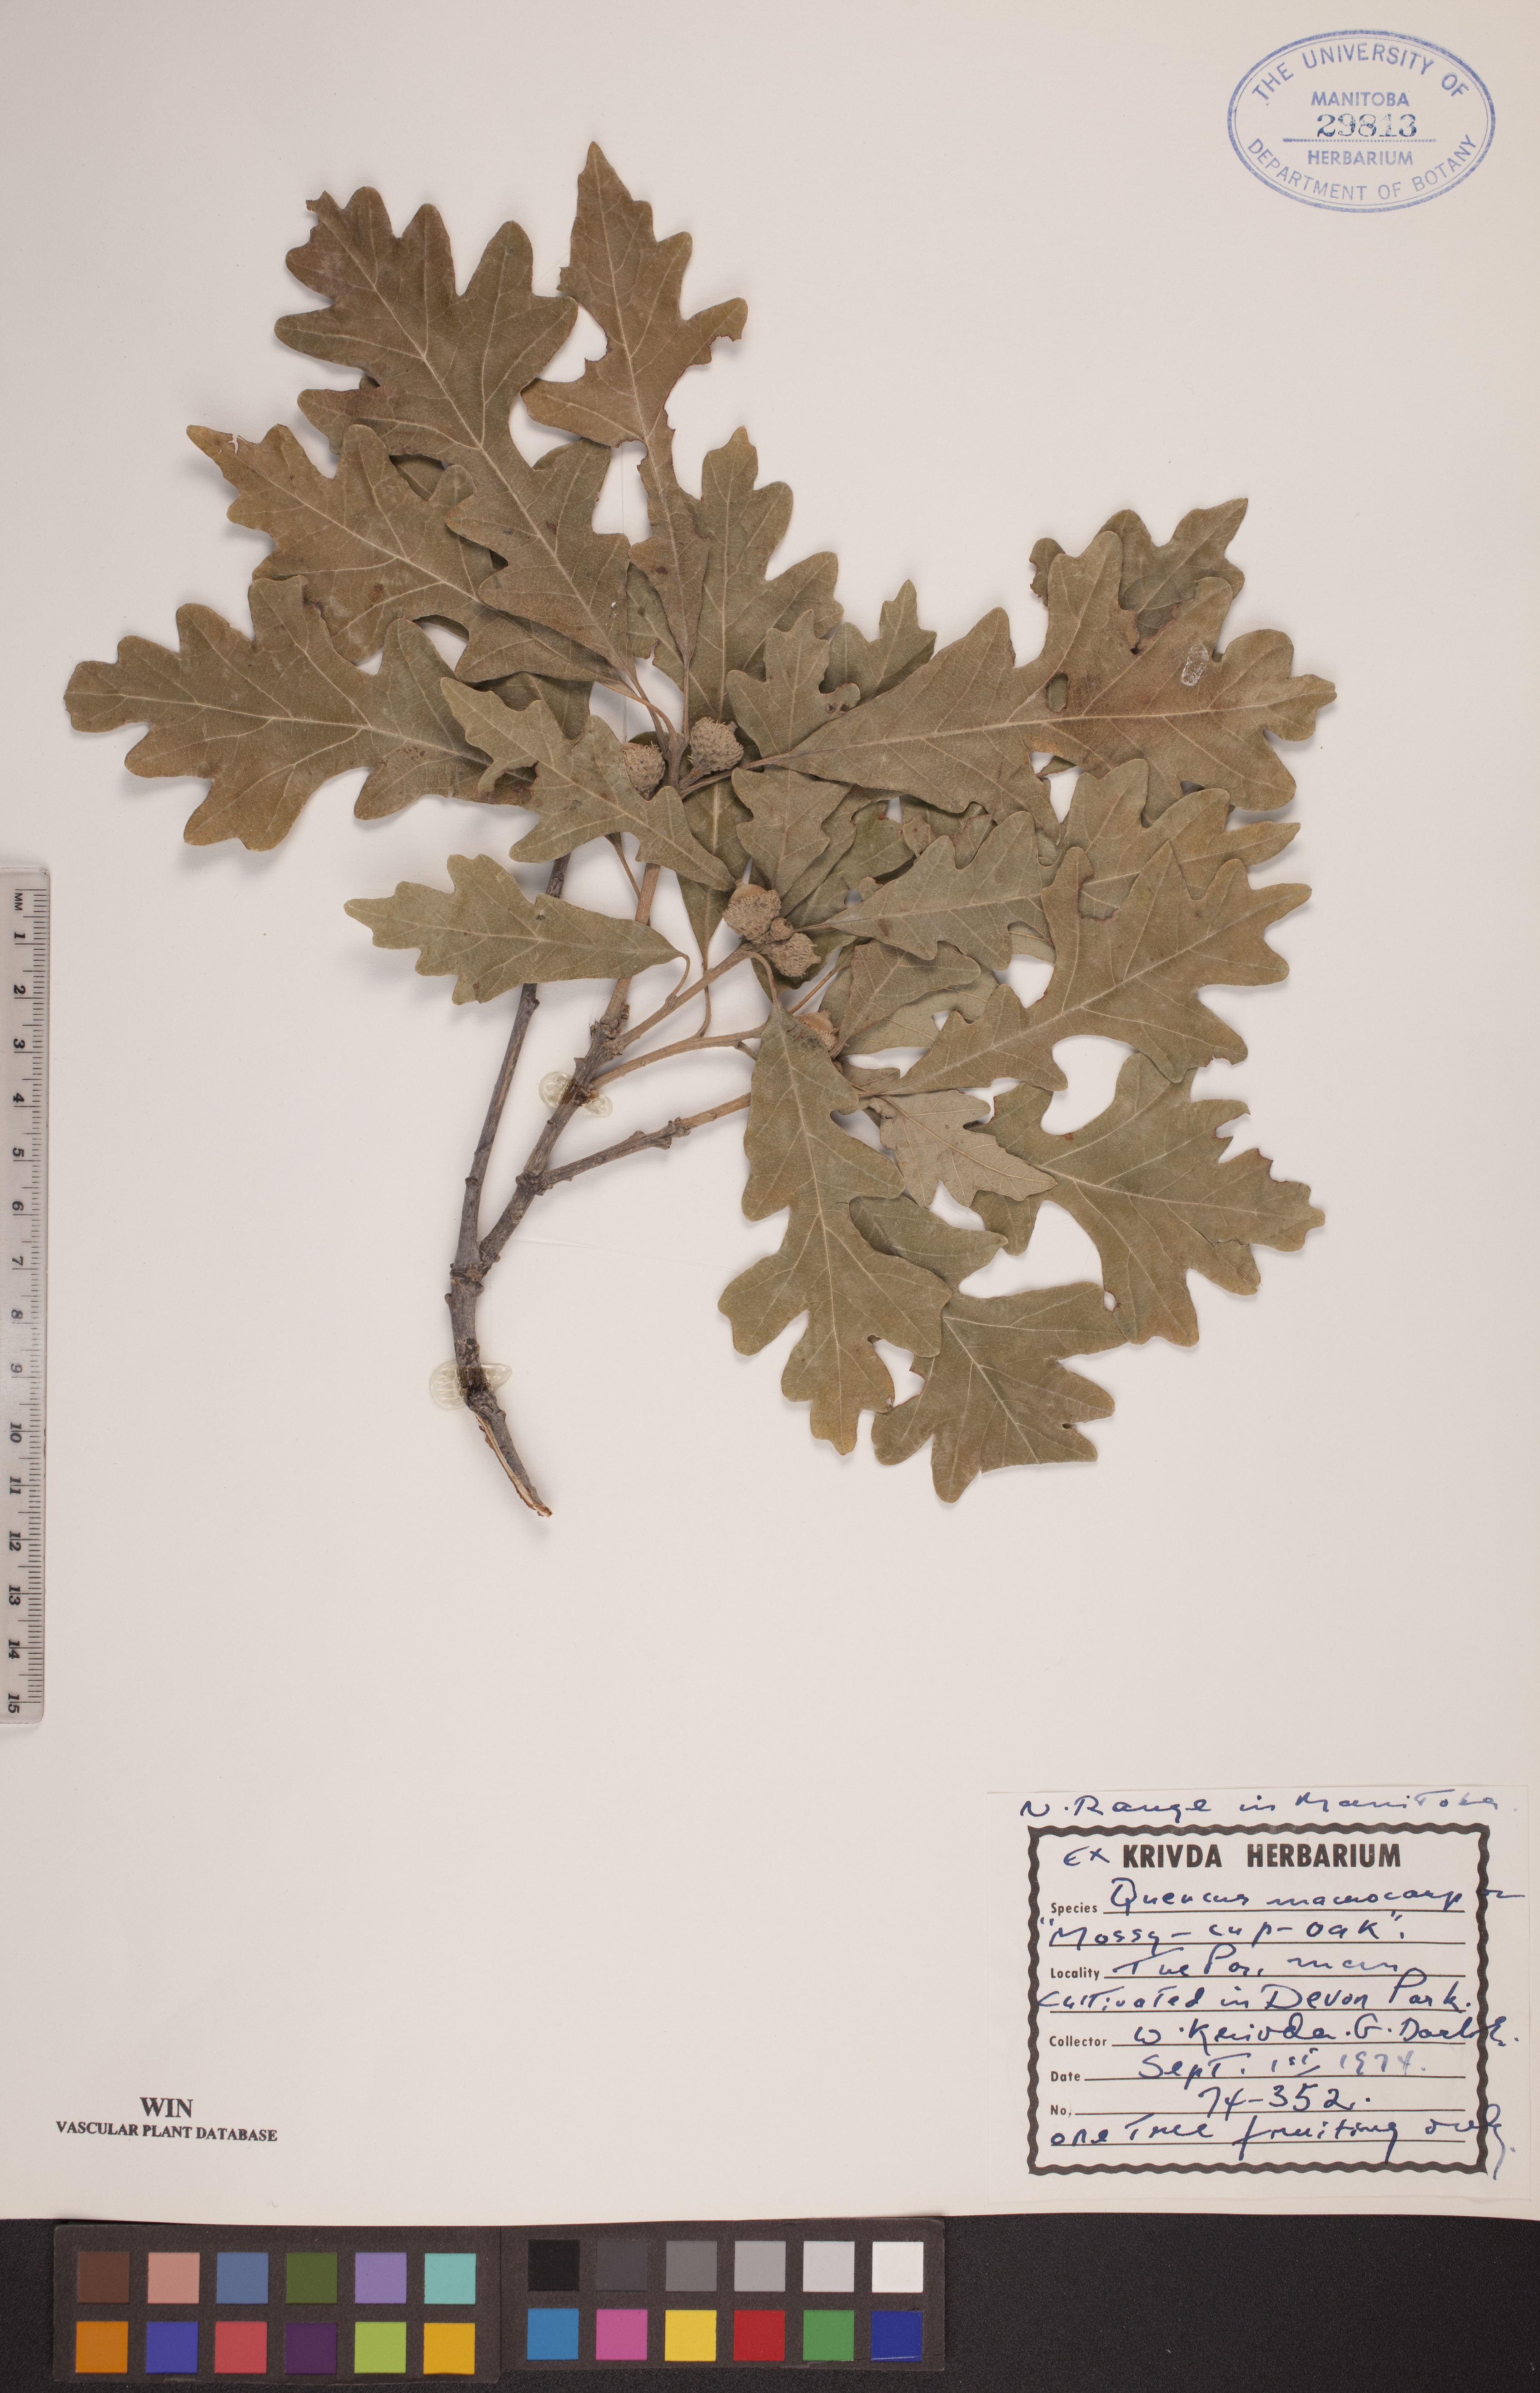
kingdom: Plantae
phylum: Tracheophyta
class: Magnoliopsida
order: Fagales
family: Fagaceae
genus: Quercus
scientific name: Quercus macrocarpa
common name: Bur oak
